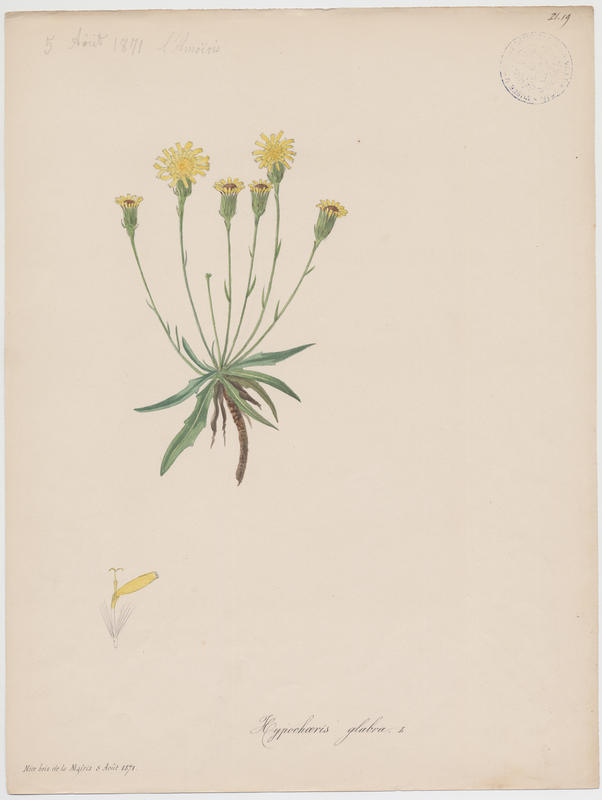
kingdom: Plantae
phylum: Tracheophyta
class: Magnoliopsida
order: Asterales
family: Asteraceae
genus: Hypochoeris
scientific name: Hypochoeris glabra
